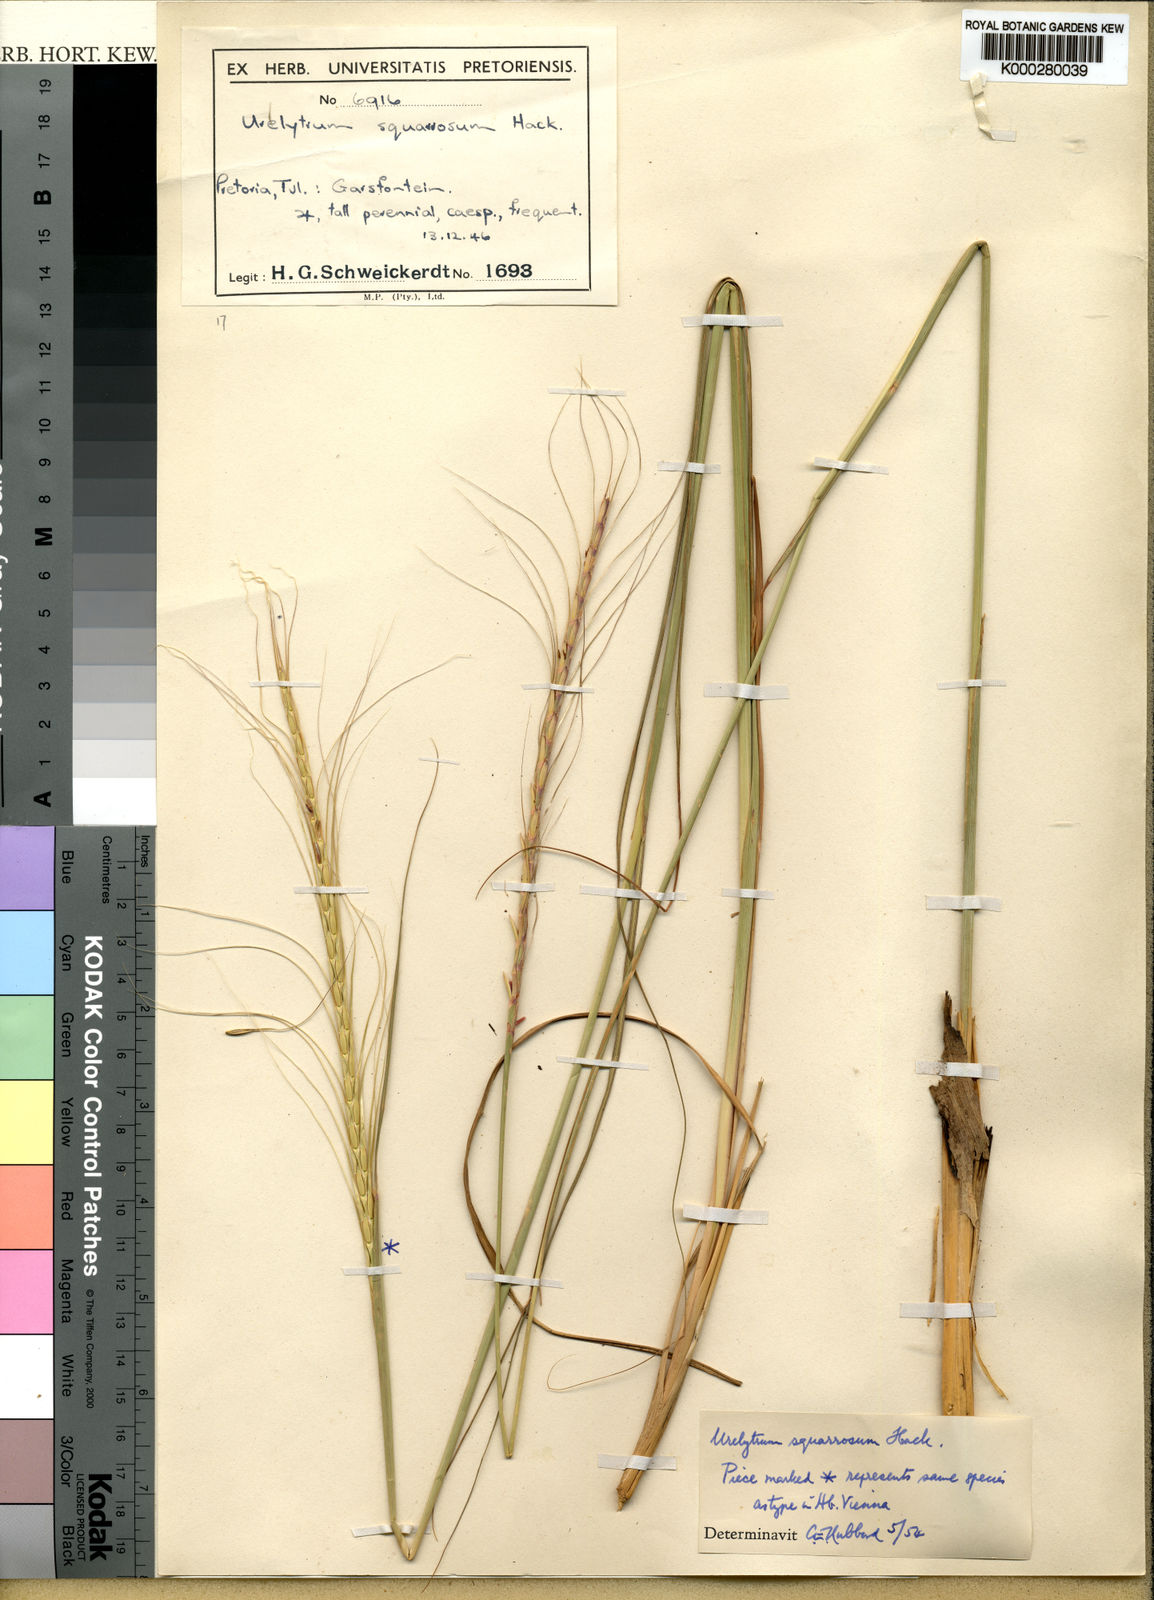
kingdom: Plantae
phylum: Tracheophyta
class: Liliopsida
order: Poales
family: Poaceae
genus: Urelytrum
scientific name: Urelytrum agropyroides
